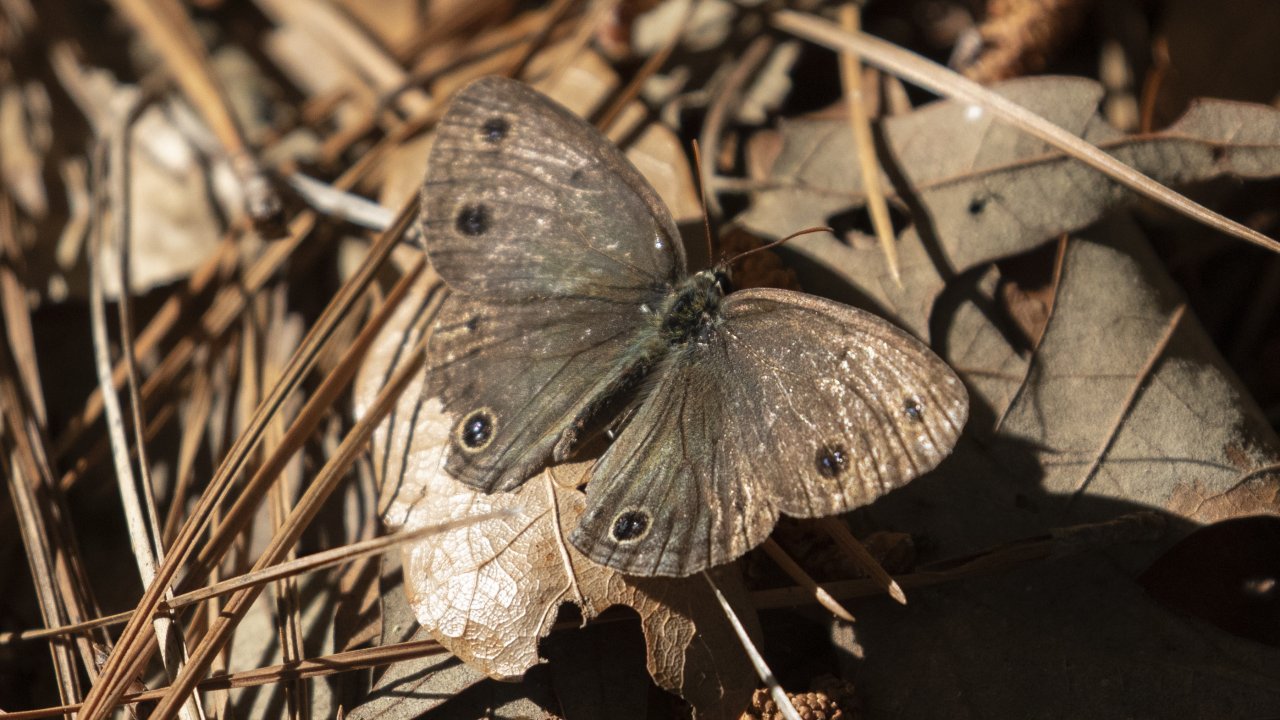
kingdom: Animalia
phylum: Arthropoda
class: Insecta
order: Lepidoptera
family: Nymphalidae
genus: Euptychia
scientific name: Euptychia cymela
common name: Little Wood Satyr
